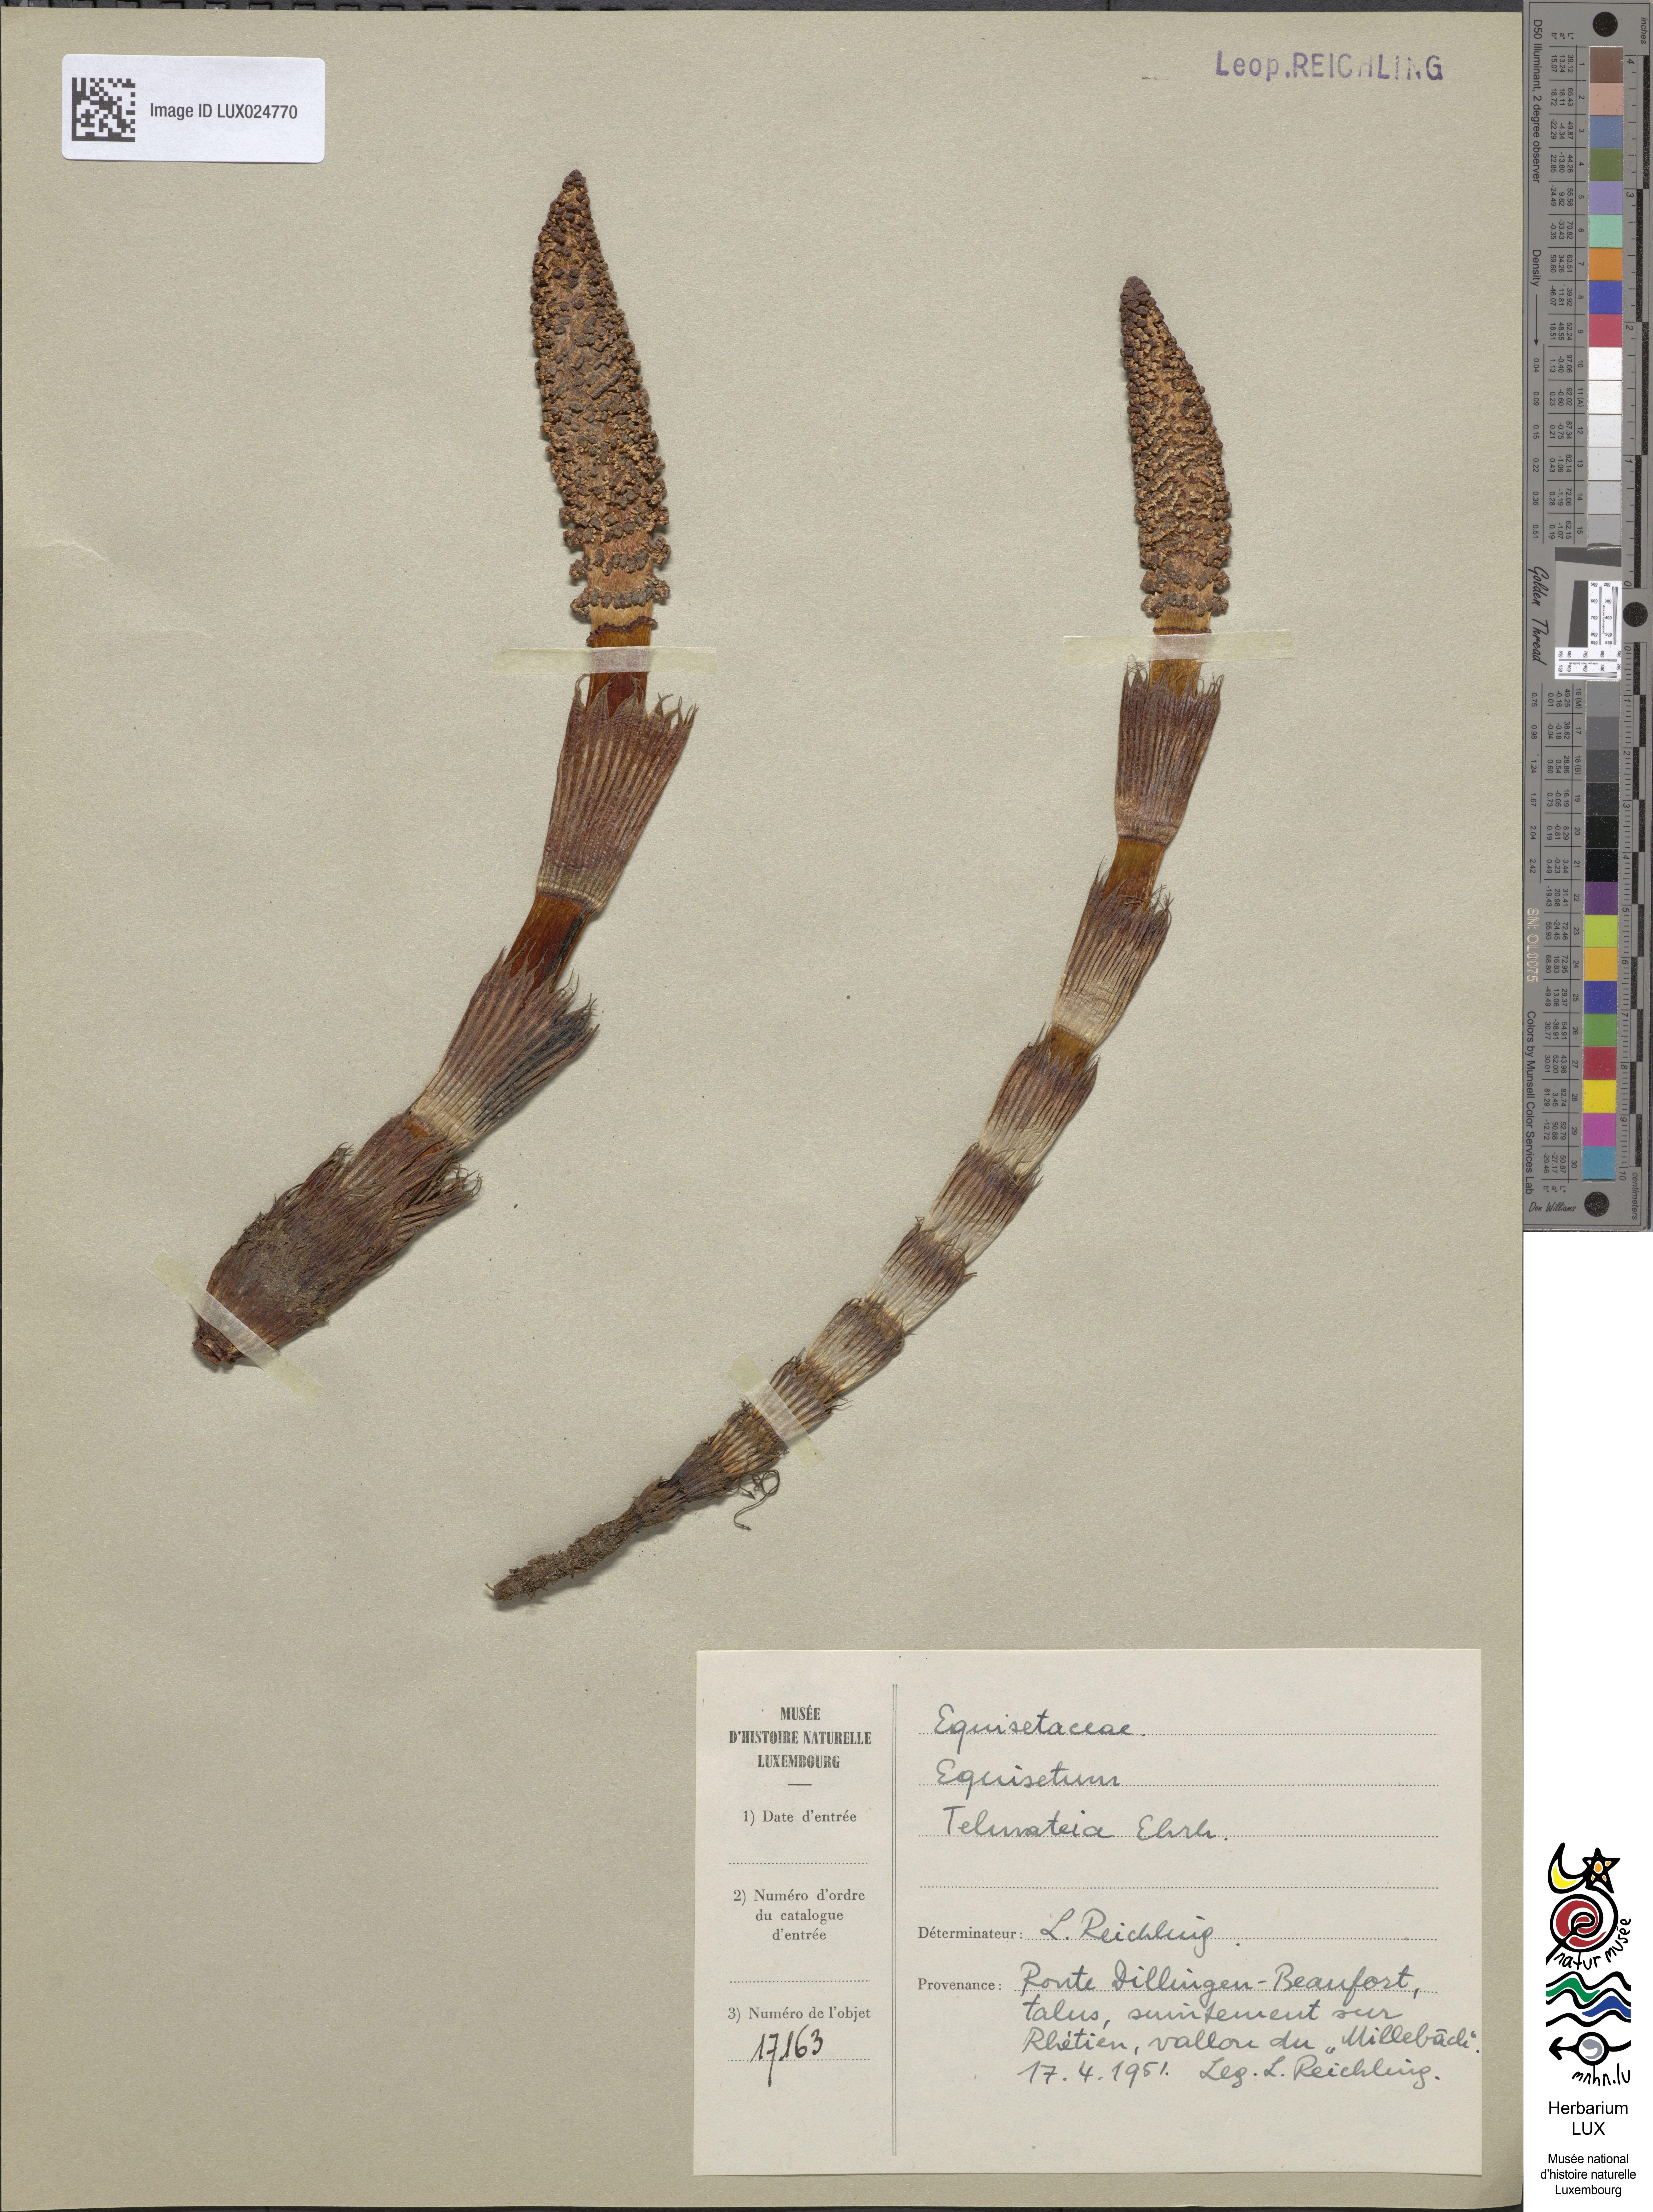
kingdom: Plantae
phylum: Tracheophyta
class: Polypodiopsida
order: Equisetales
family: Equisetaceae
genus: Equisetum
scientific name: Equisetum telmateia
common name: Great horsetail
